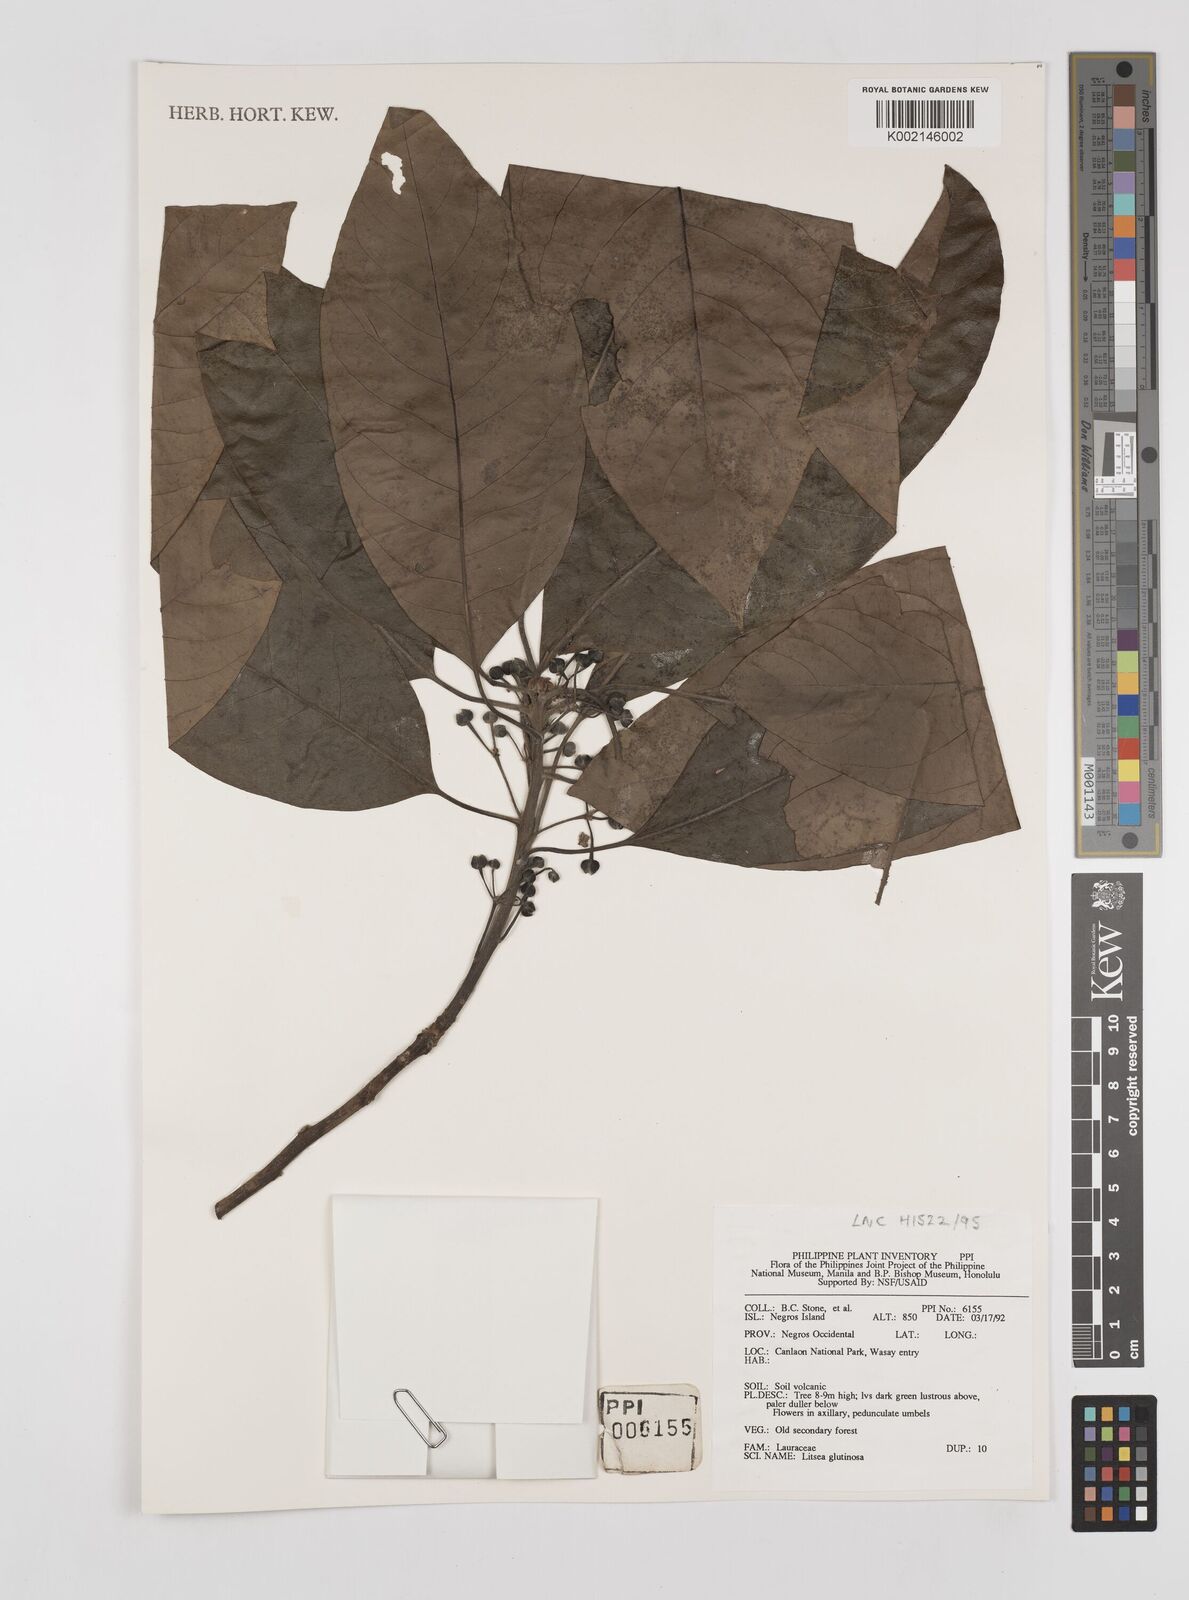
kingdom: Plantae
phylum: Tracheophyta
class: Magnoliopsida
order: Laurales
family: Lauraceae
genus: Litsea
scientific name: Litsea
